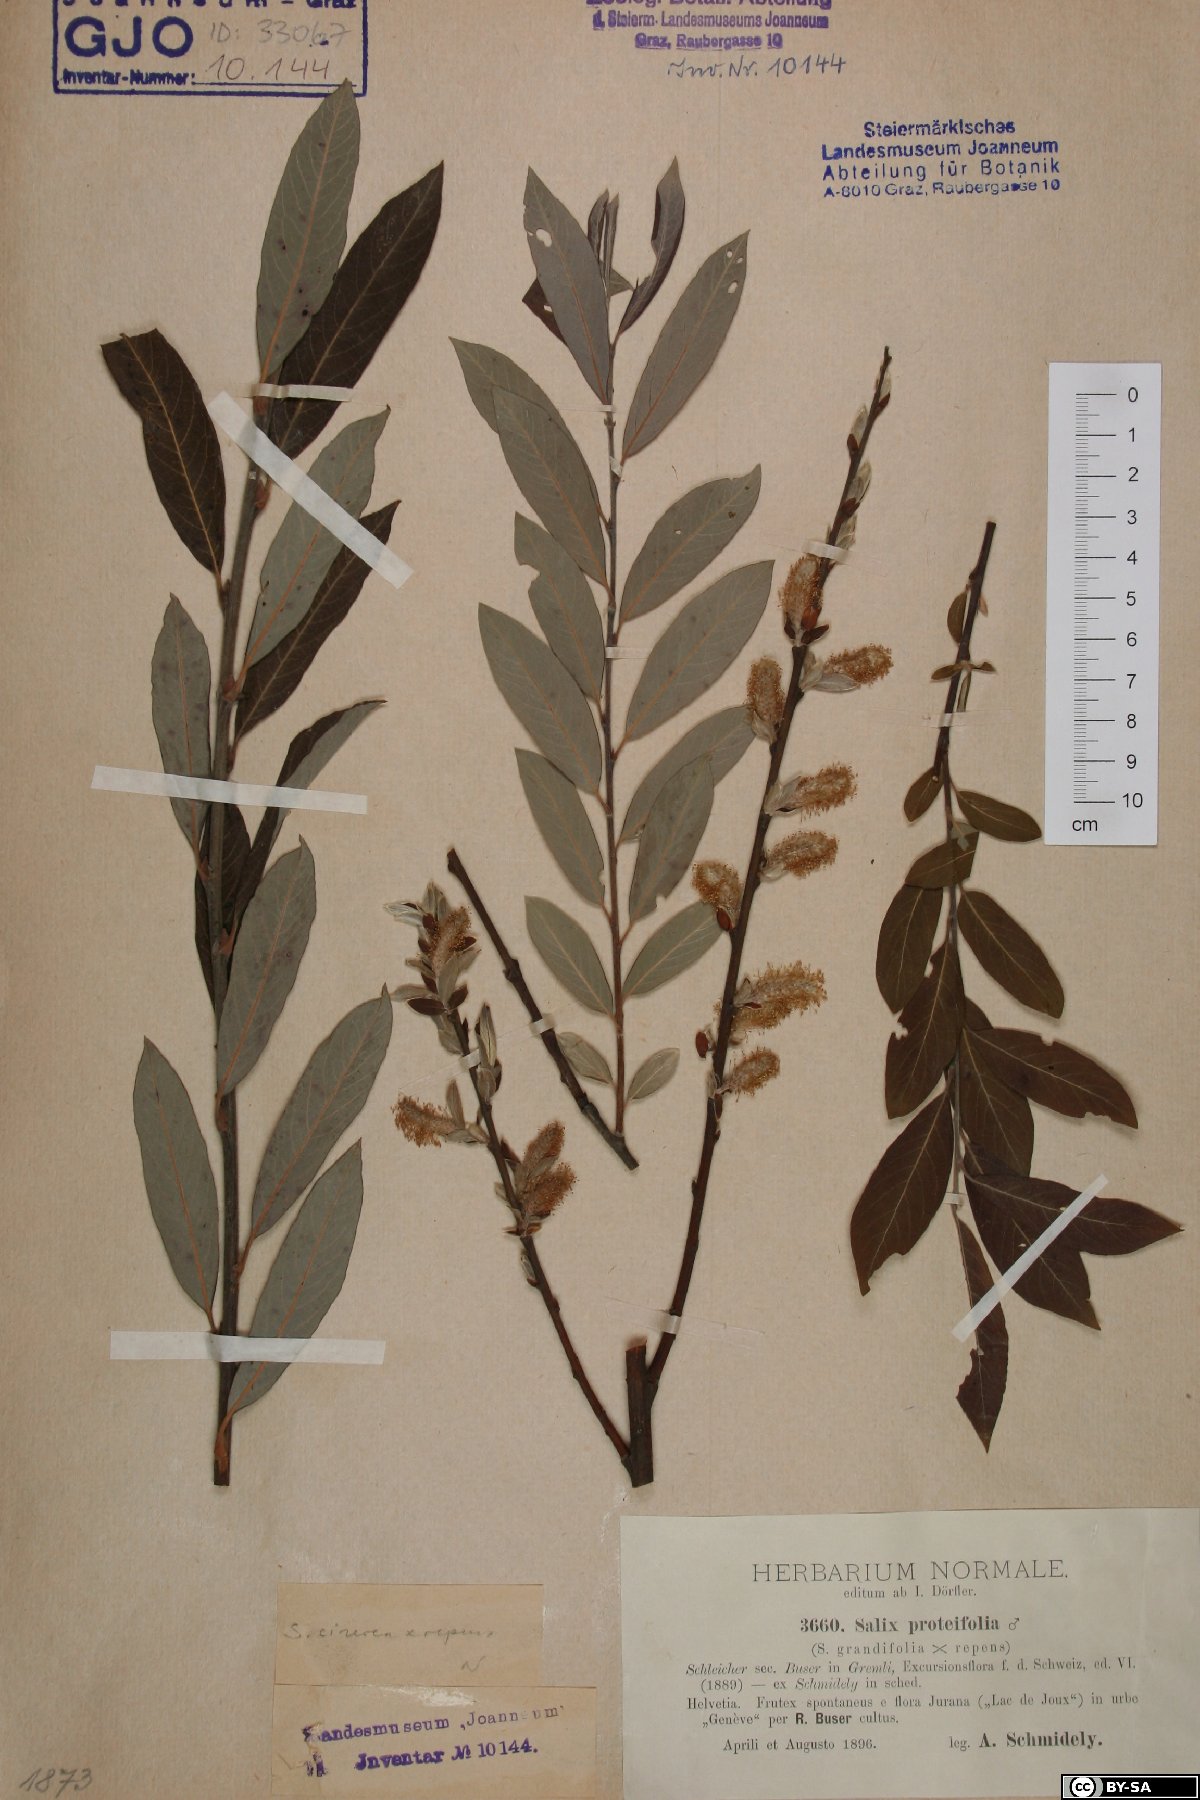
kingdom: Plantae
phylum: Tracheophyta
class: Magnoliopsida
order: Malpighiales
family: Salicaceae
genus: Salix
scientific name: Salix myrsinifolia
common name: Dark-leaved willow
